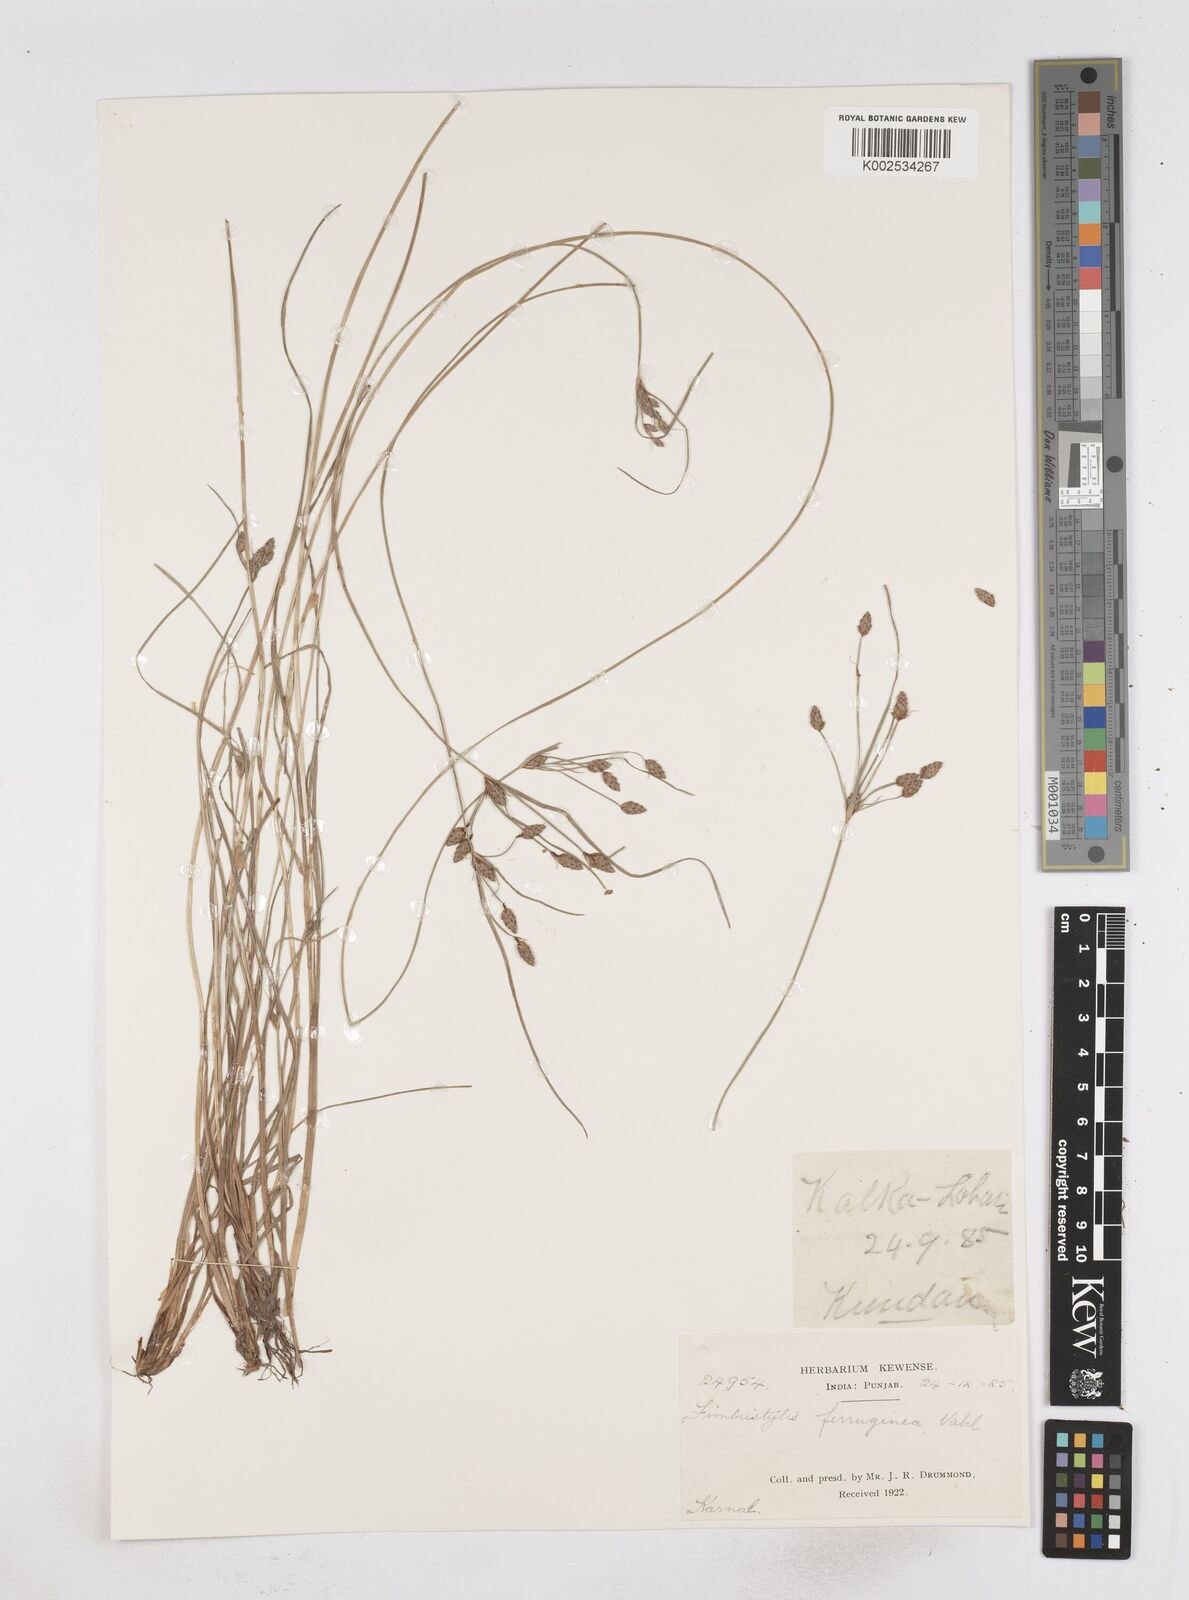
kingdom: Plantae
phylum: Tracheophyta
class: Liliopsida
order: Poales
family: Cyperaceae
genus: Fimbristylis
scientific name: Fimbristylis ferruginea
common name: West indian fimbry
